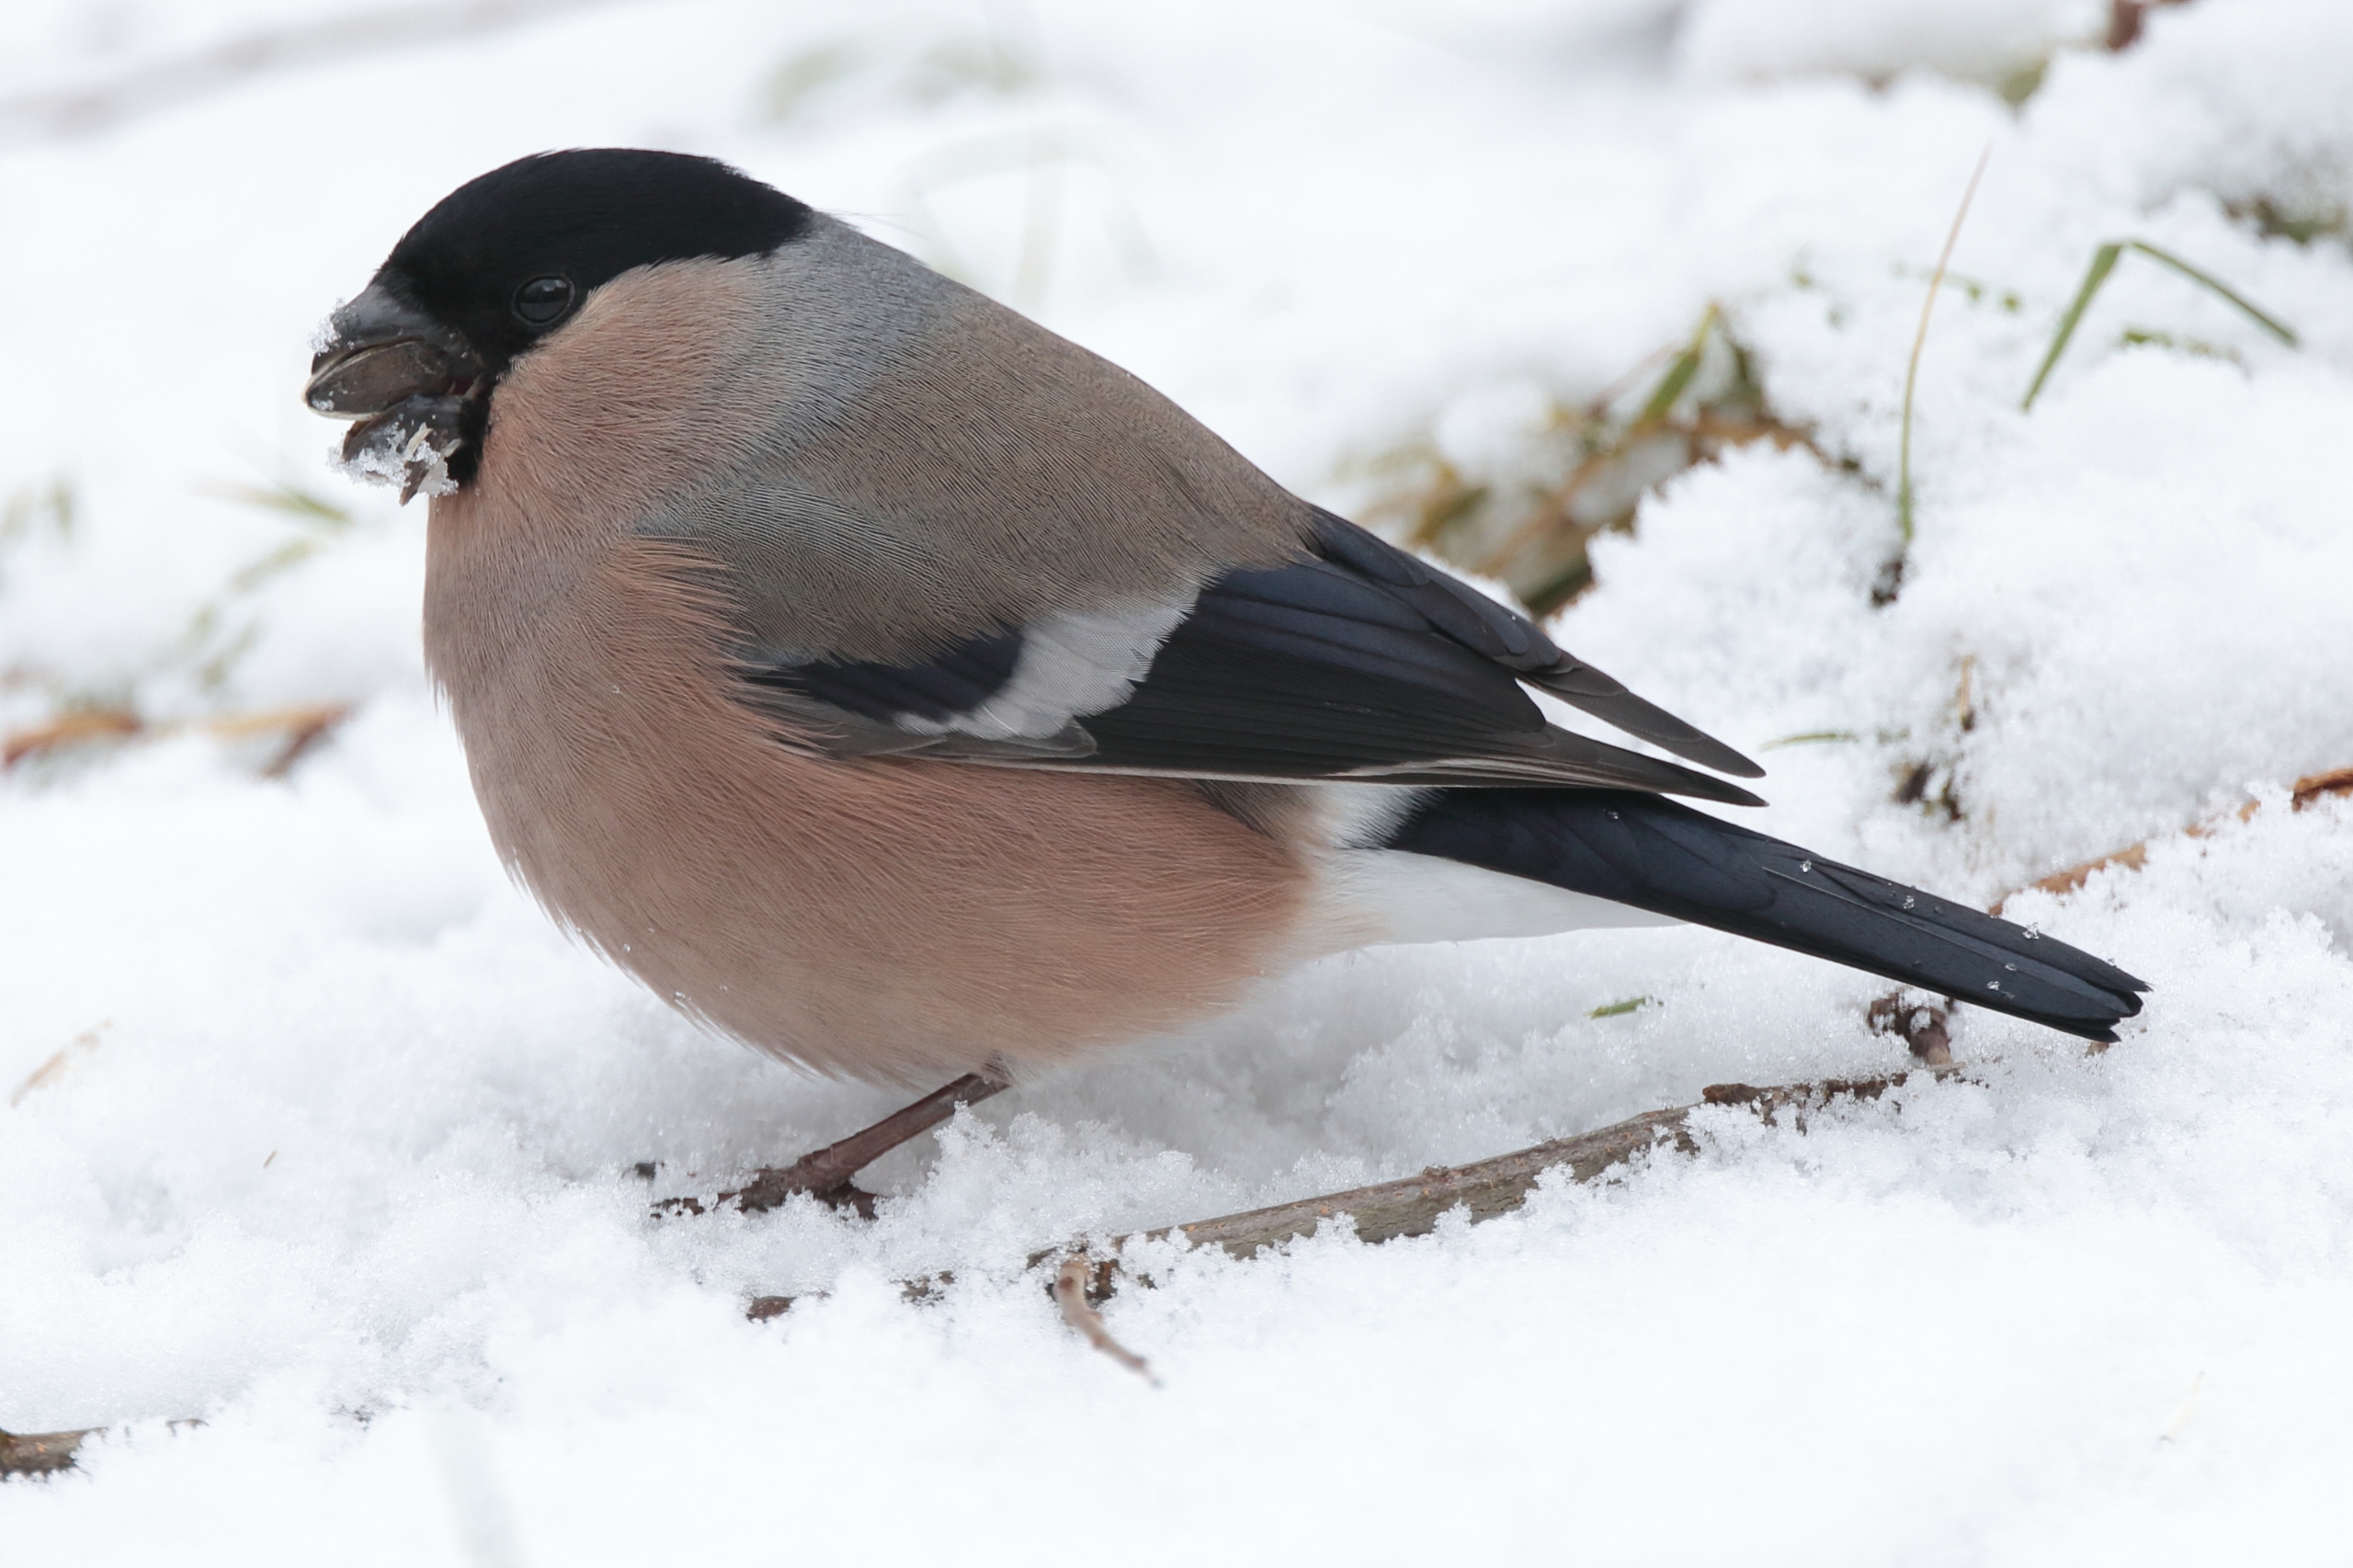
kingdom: Animalia
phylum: Chordata
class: Aves
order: Passeriformes
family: Fringillidae
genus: Pyrrhula
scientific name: Pyrrhula pyrrhula
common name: Dompap
